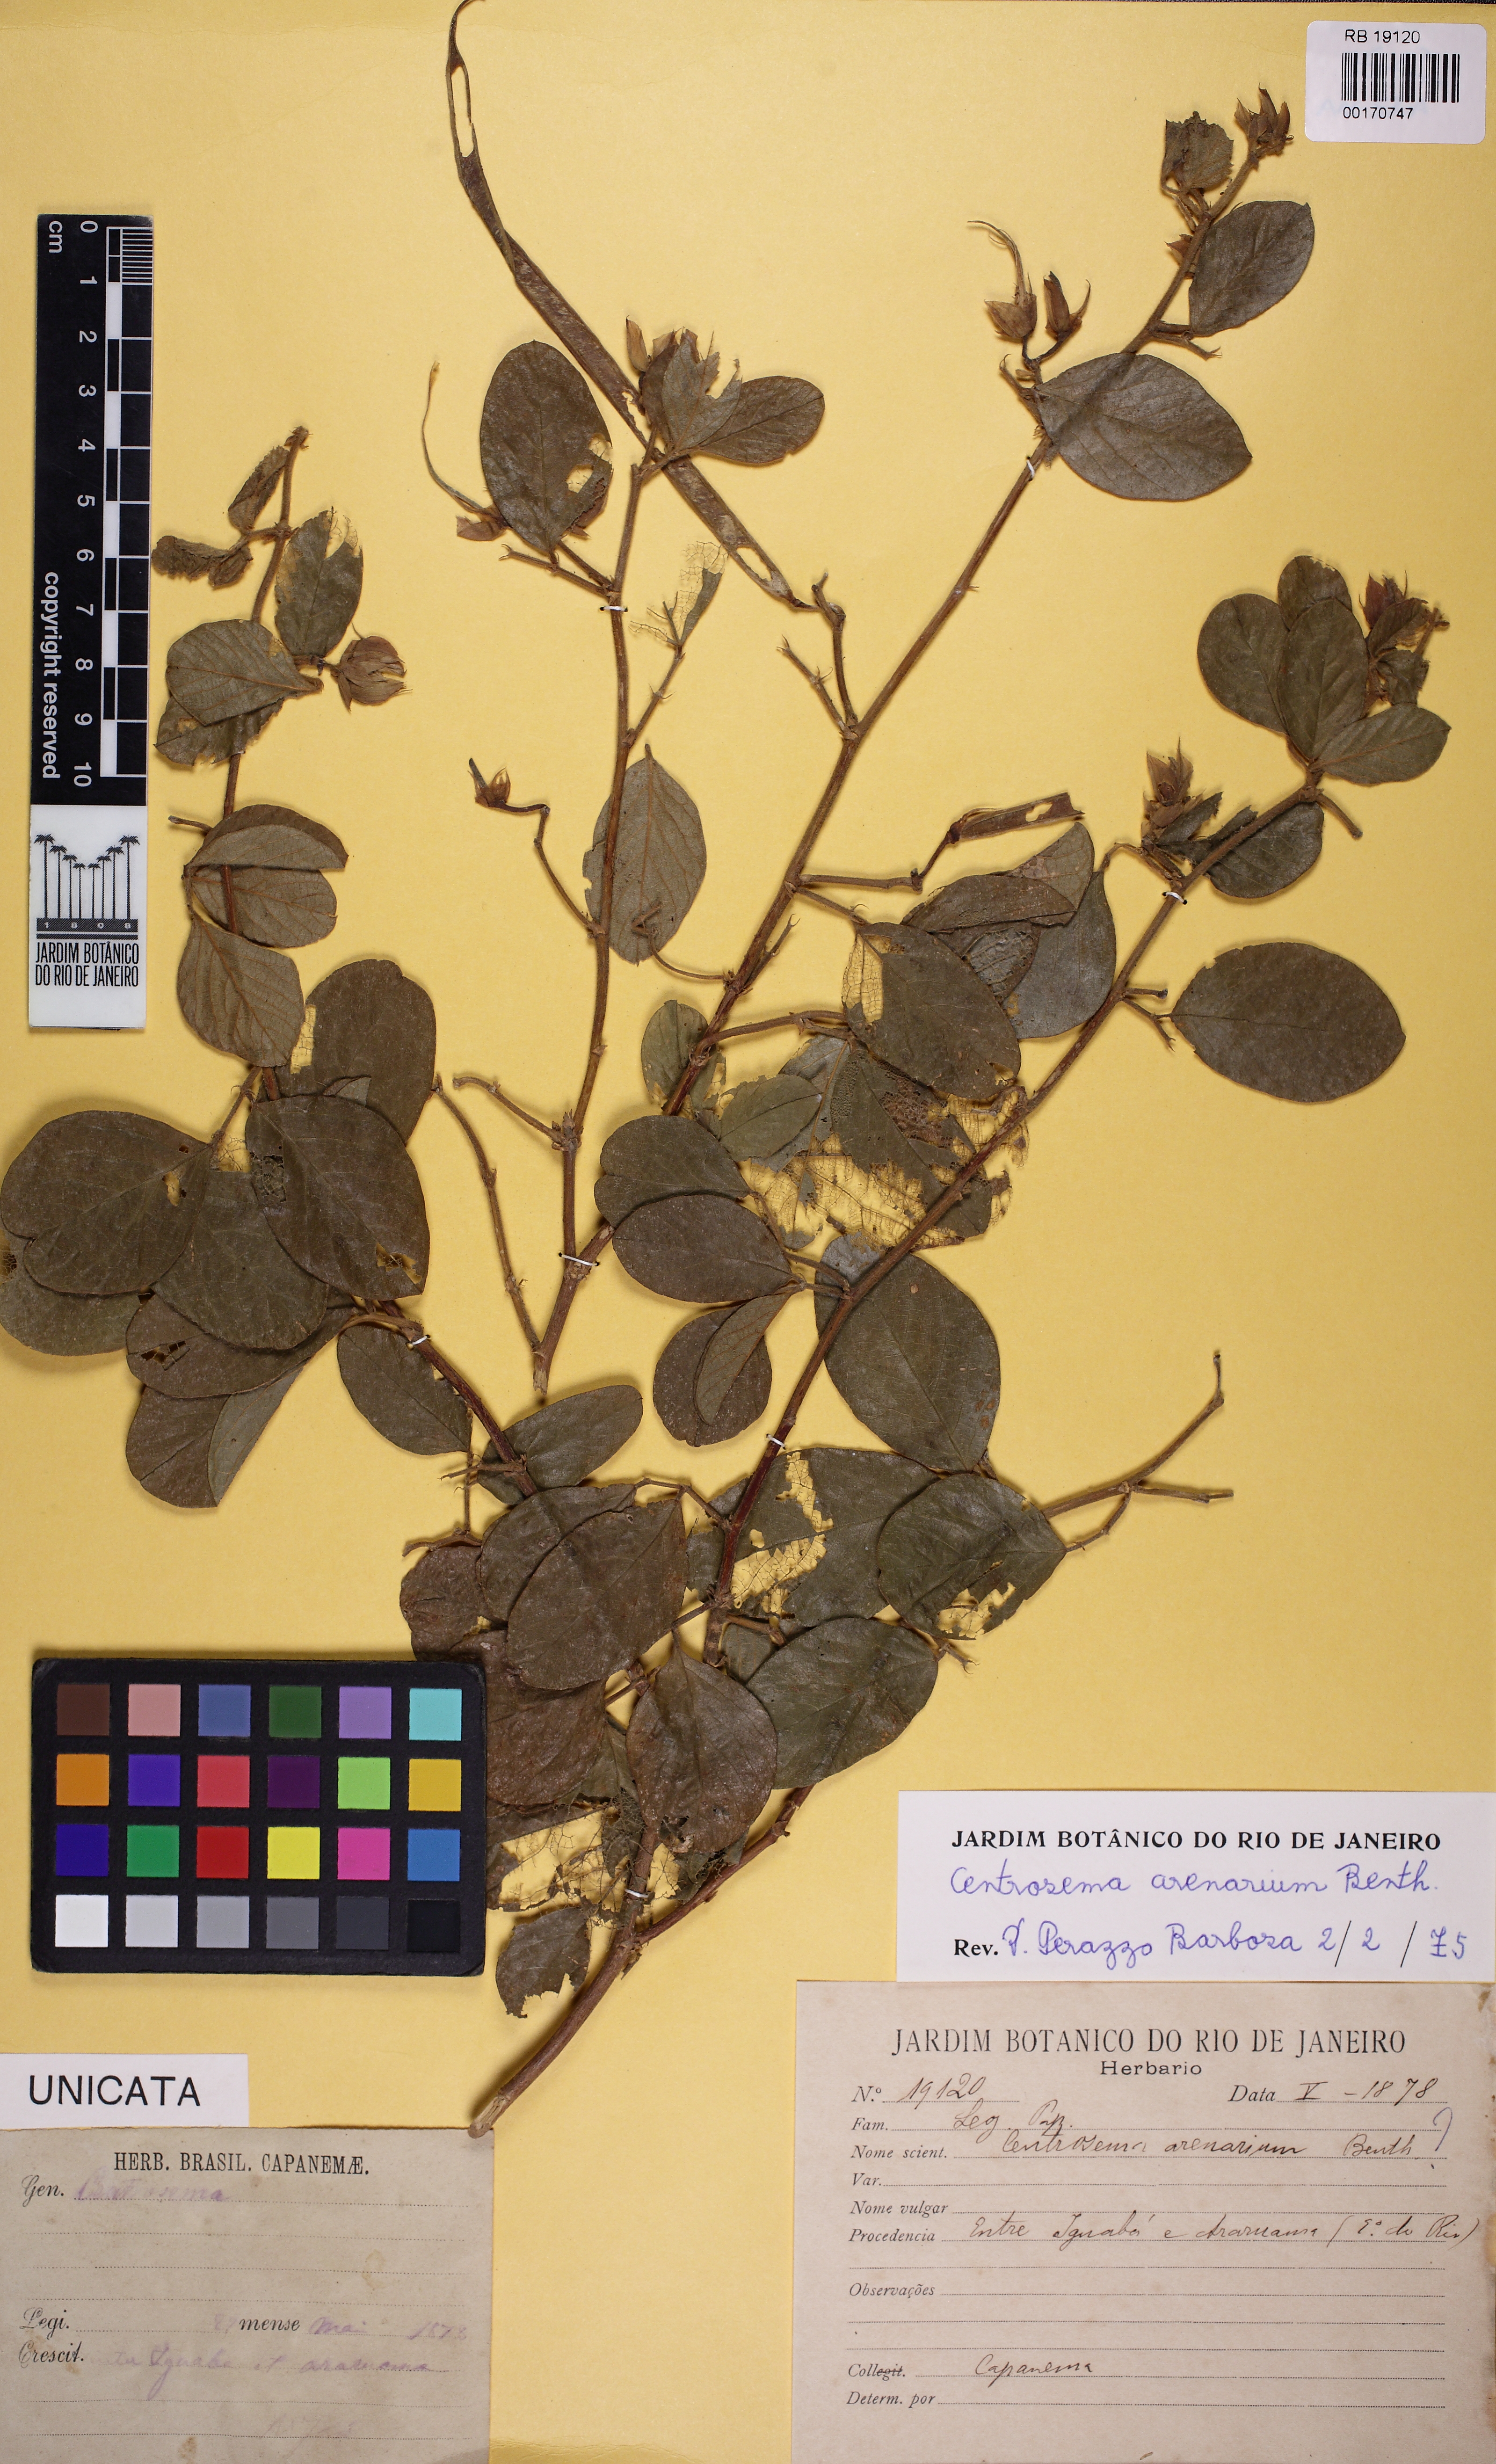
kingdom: Plantae
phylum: Tracheophyta
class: Magnoliopsida
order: Fabales
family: Fabaceae
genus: Centrosema
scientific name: Centrosema arenarium
